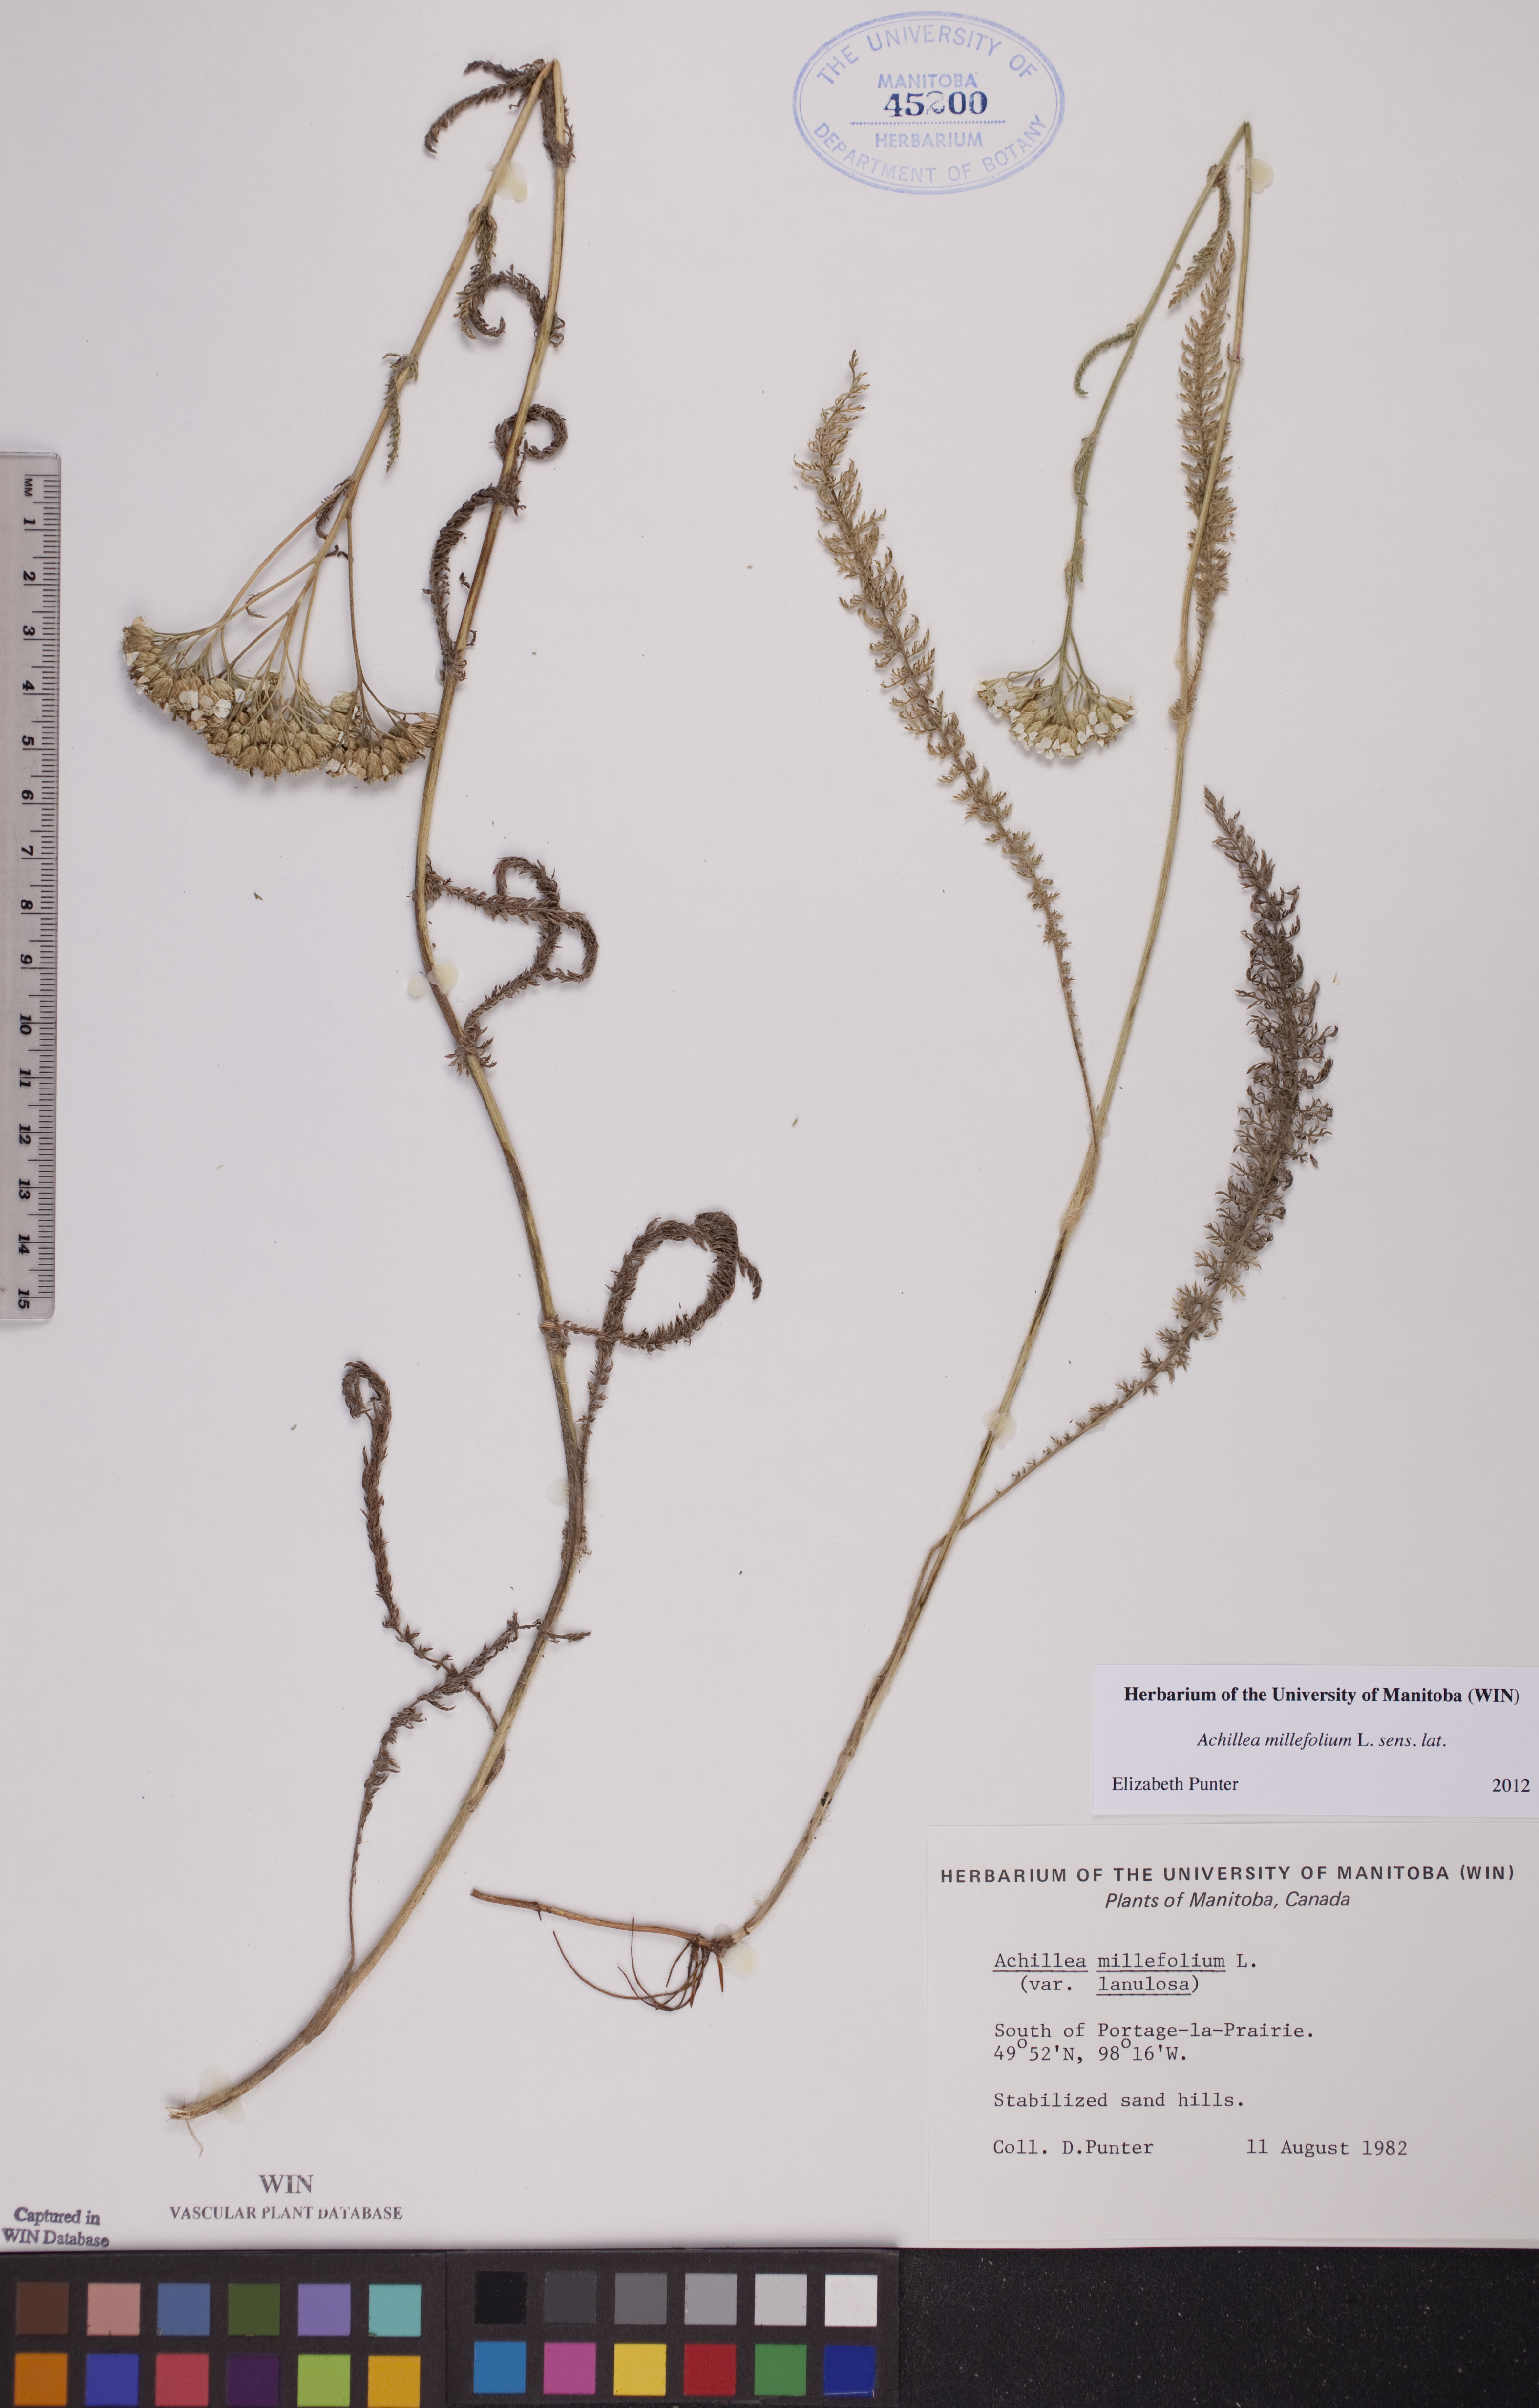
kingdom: Plantae
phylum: Tracheophyta
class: Magnoliopsida
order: Asterales
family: Asteraceae
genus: Achillea
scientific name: Achillea millefolium
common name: Yarrow
